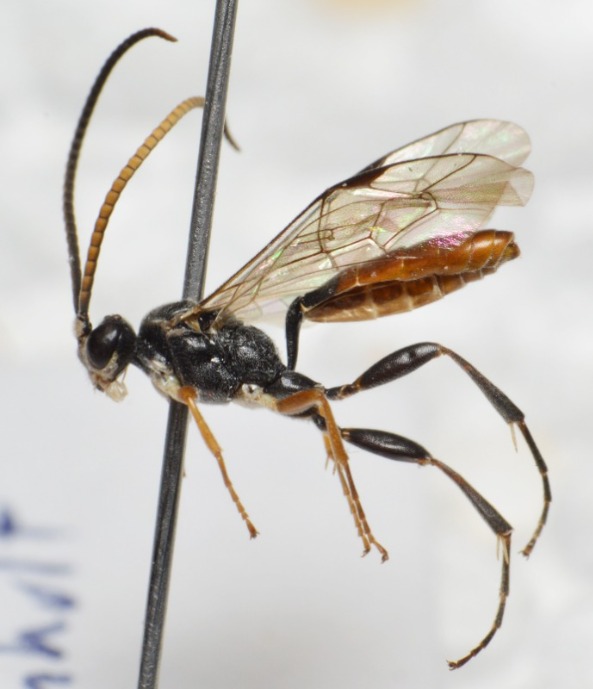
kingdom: Animalia
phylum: Arthropoda
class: Insecta
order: Hymenoptera
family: Ichneumonidae
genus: Crypteffigies
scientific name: Crypteffigies lanius
